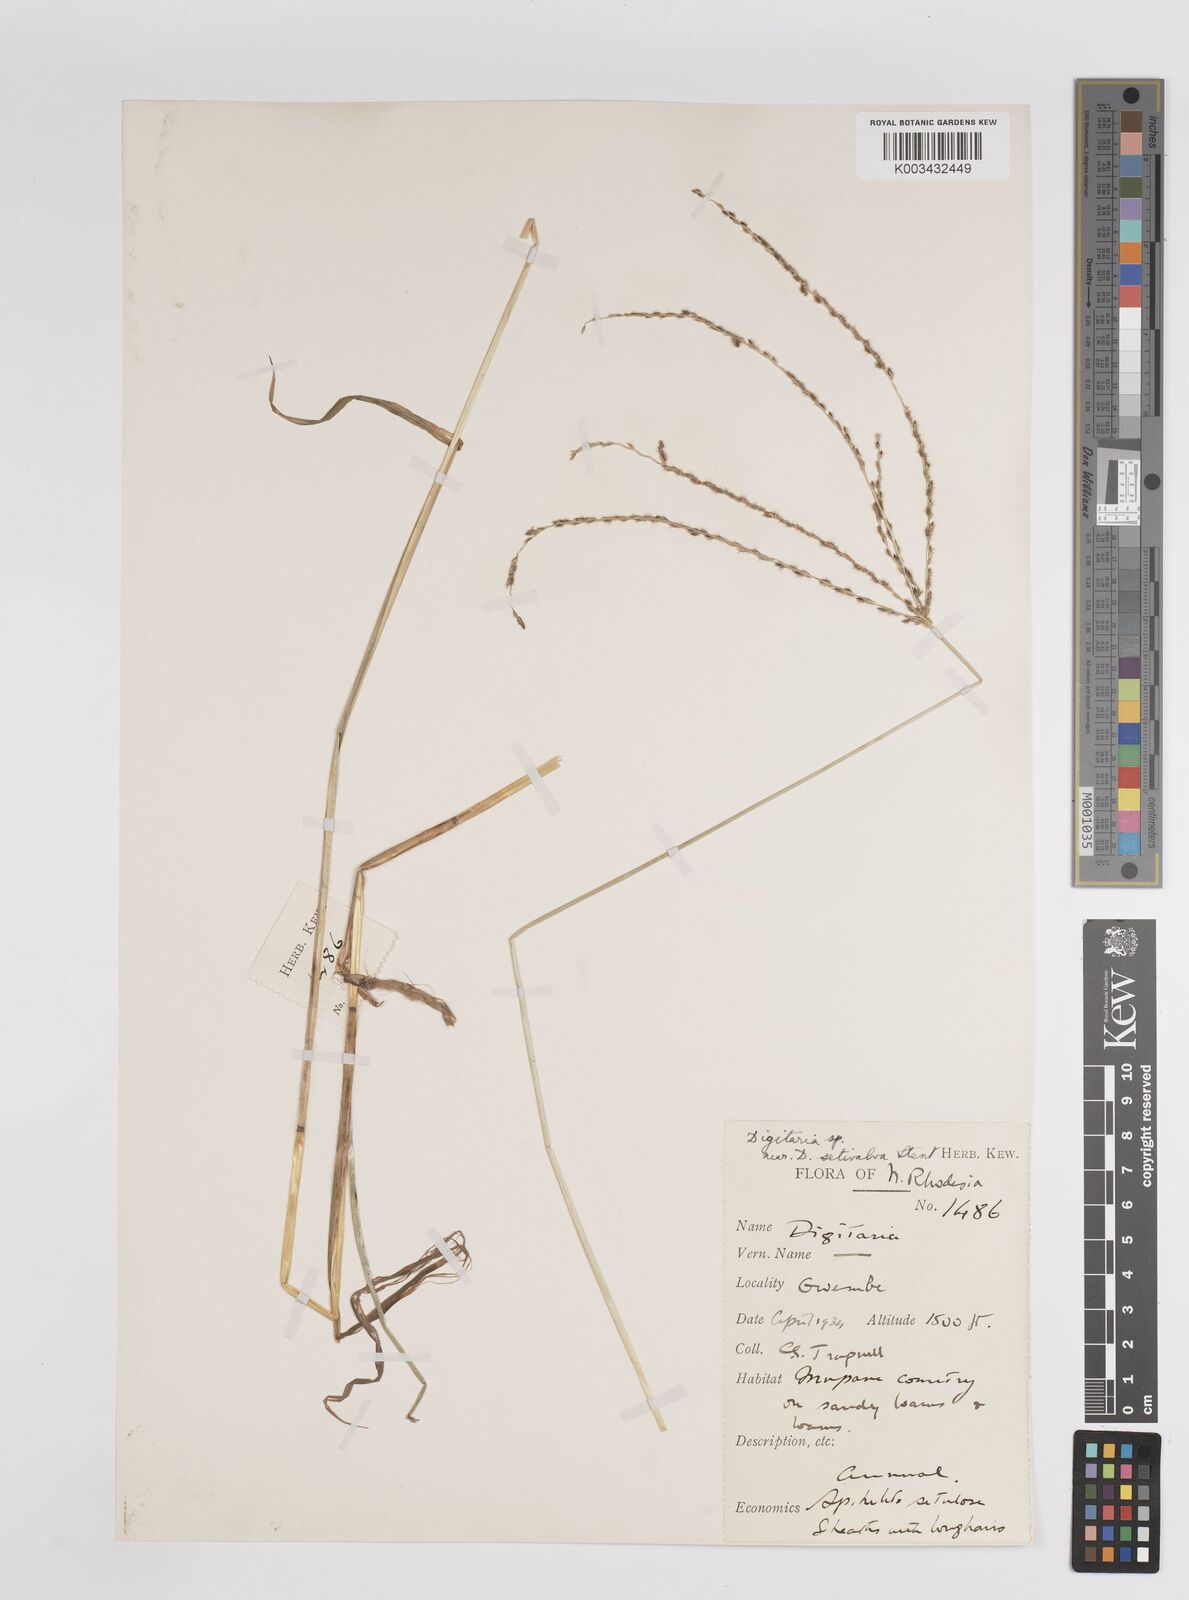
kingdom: Plantae
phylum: Tracheophyta
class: Liliopsida
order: Poales
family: Poaceae
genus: Digitaria
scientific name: Digitaria eriantha
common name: Digitgrass
